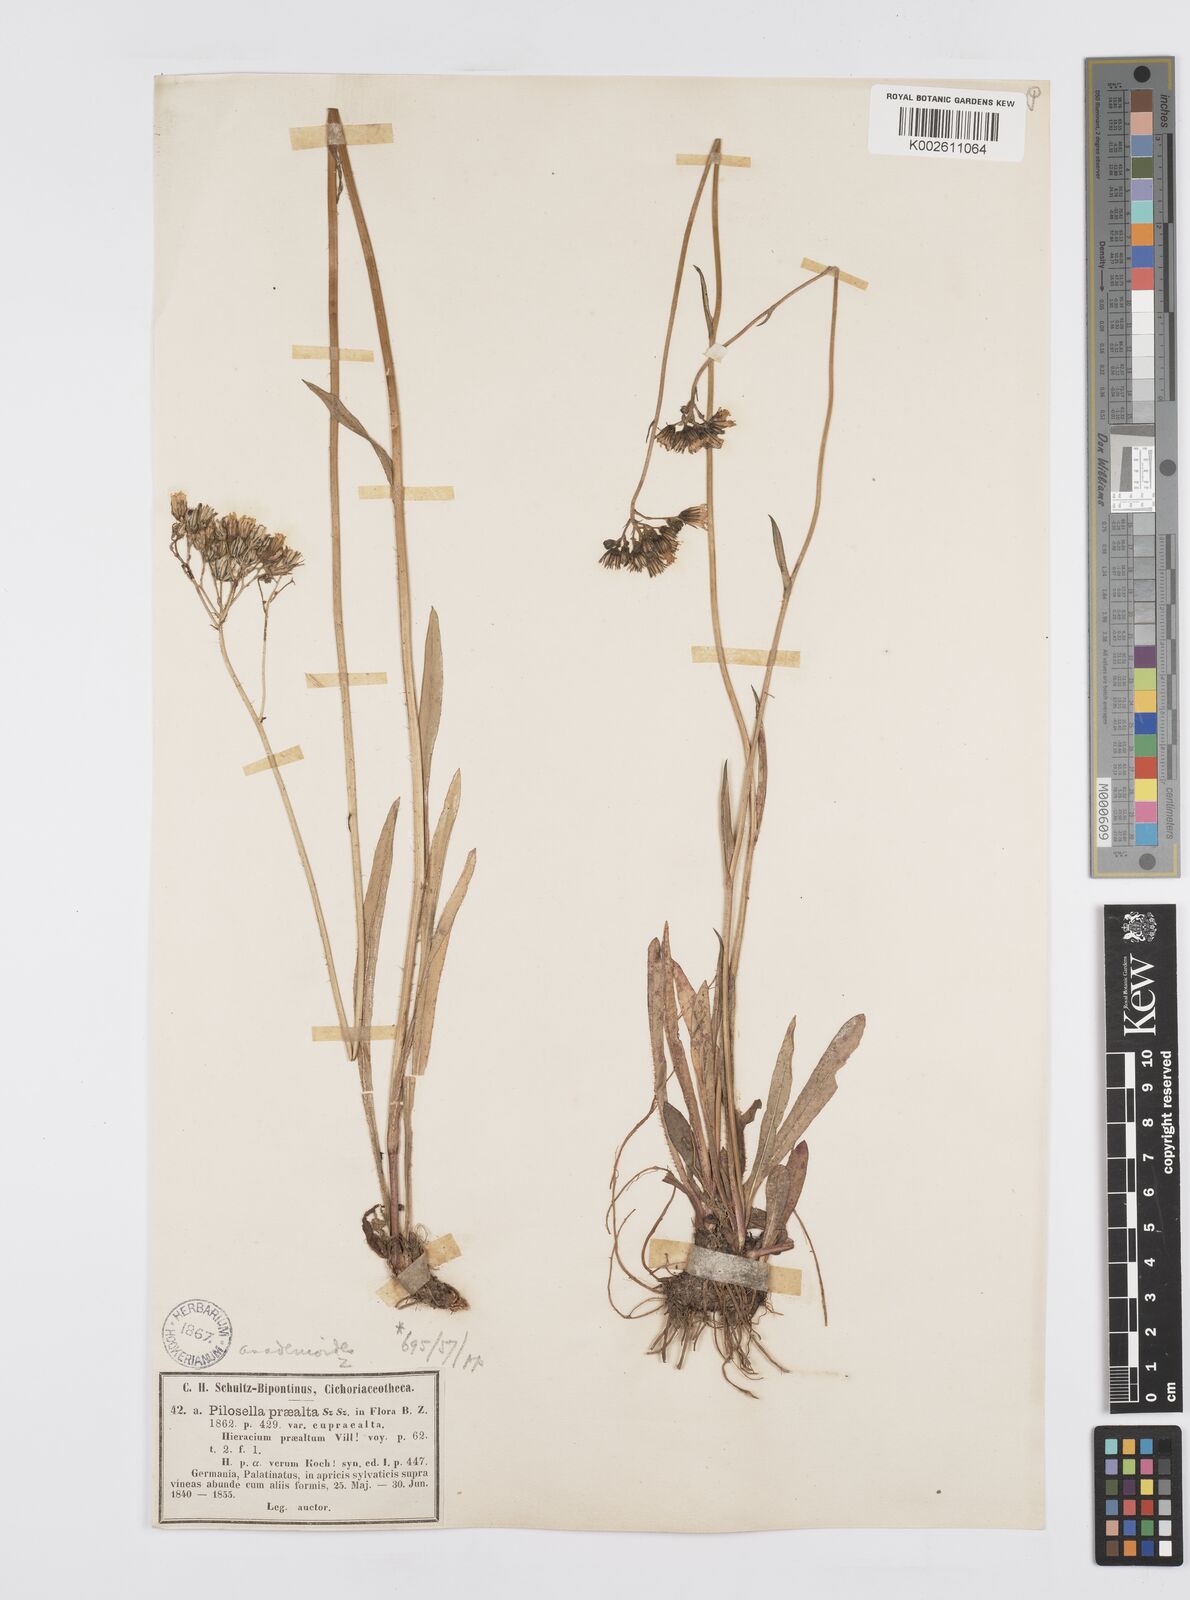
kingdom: Plantae
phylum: Tracheophyta
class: Magnoliopsida
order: Asterales
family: Asteraceae
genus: Pilosella
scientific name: Pilosella piloselloides
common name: Glaucous king-devil
